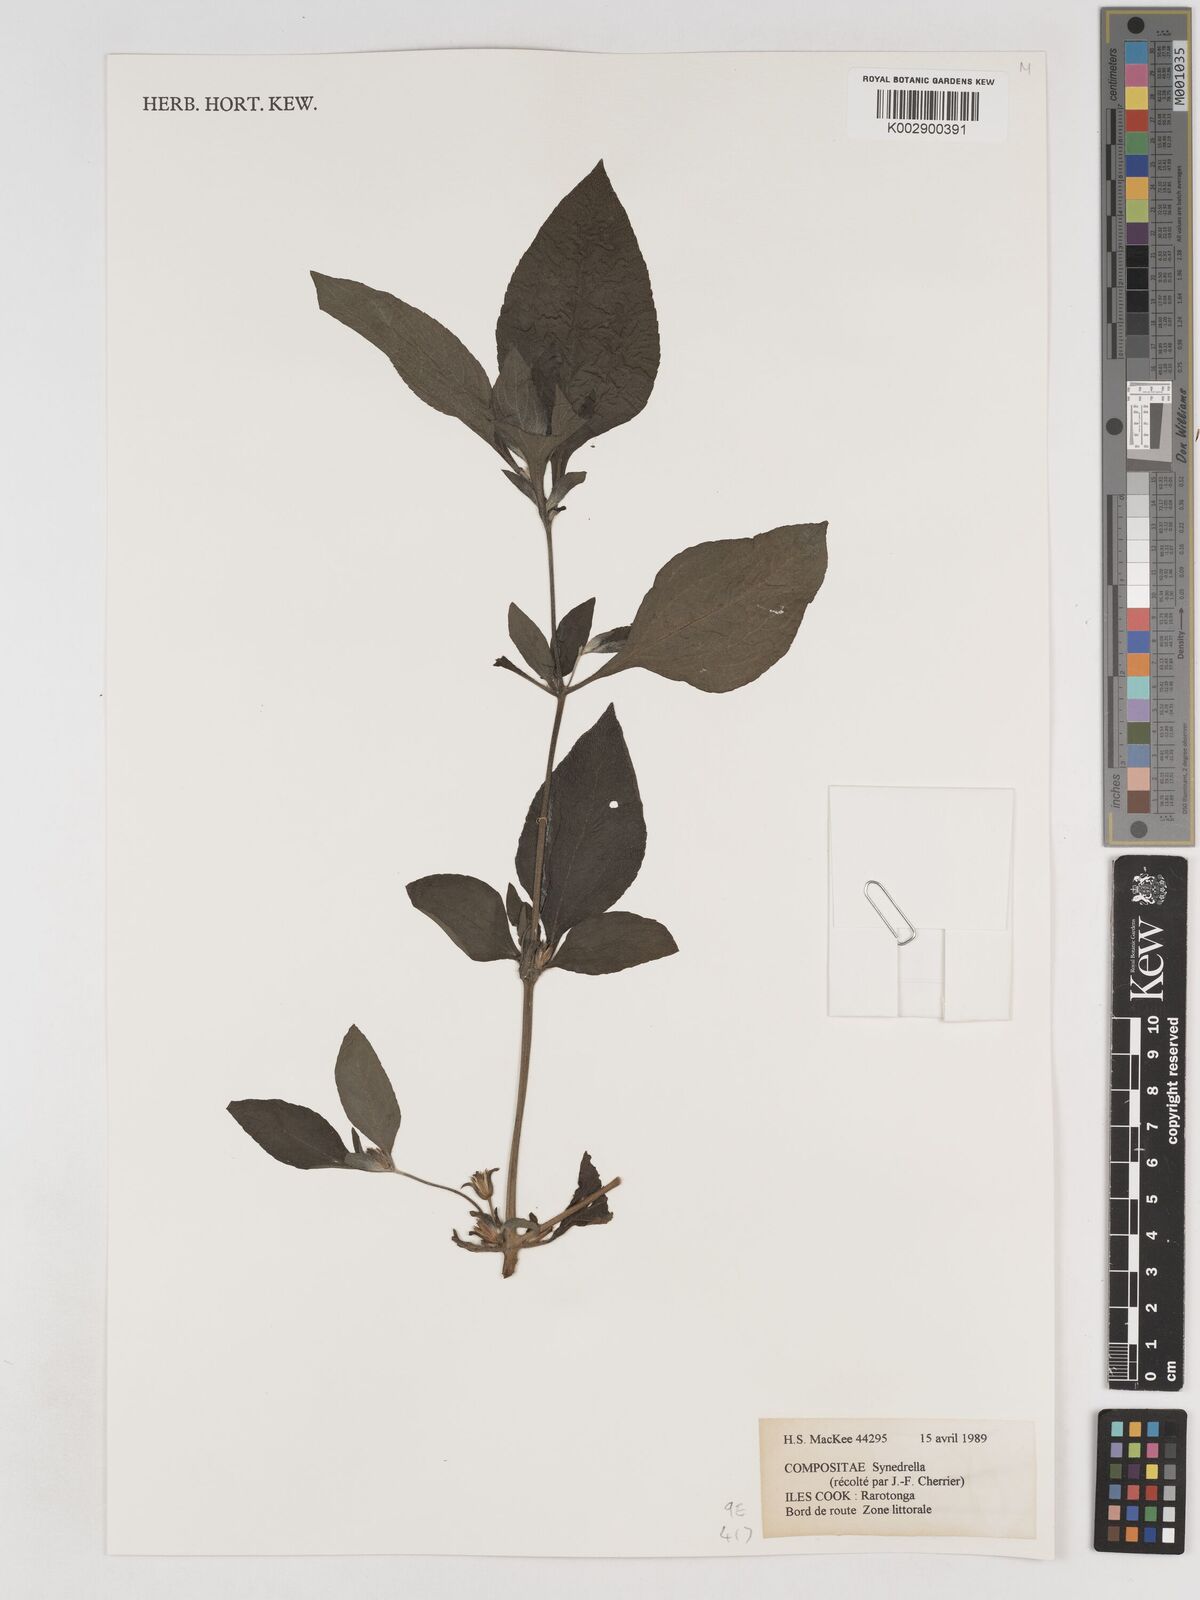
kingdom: Plantae
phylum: Tracheophyta
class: Magnoliopsida
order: Asterales
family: Asteraceae
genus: Synedrella
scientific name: Synedrella nodiflora
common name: Nodeweed
